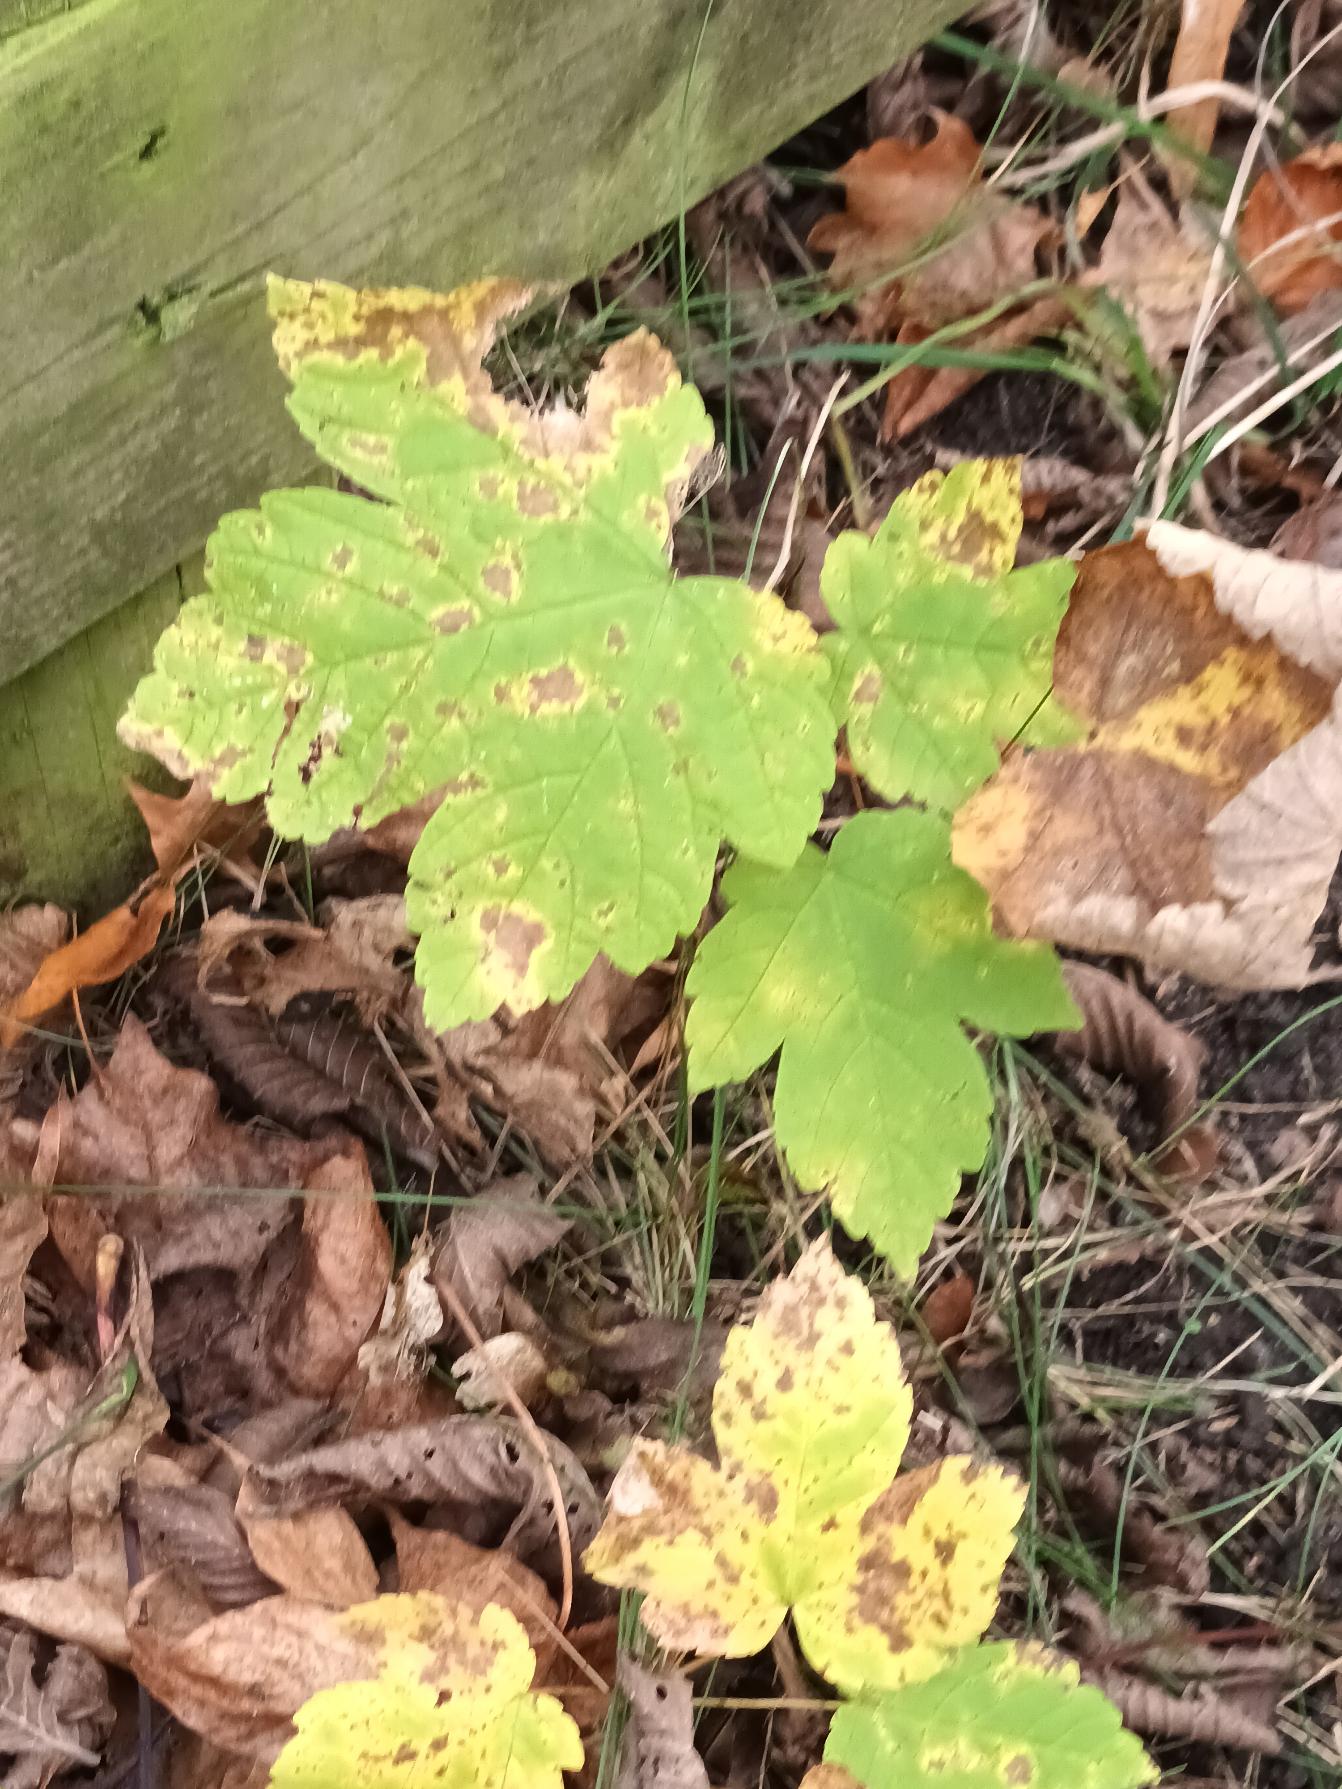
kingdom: Plantae
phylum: Tracheophyta
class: Magnoliopsida
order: Sapindales
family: Sapindaceae
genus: Acer
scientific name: Acer pseudoplatanus
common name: Ahorn
